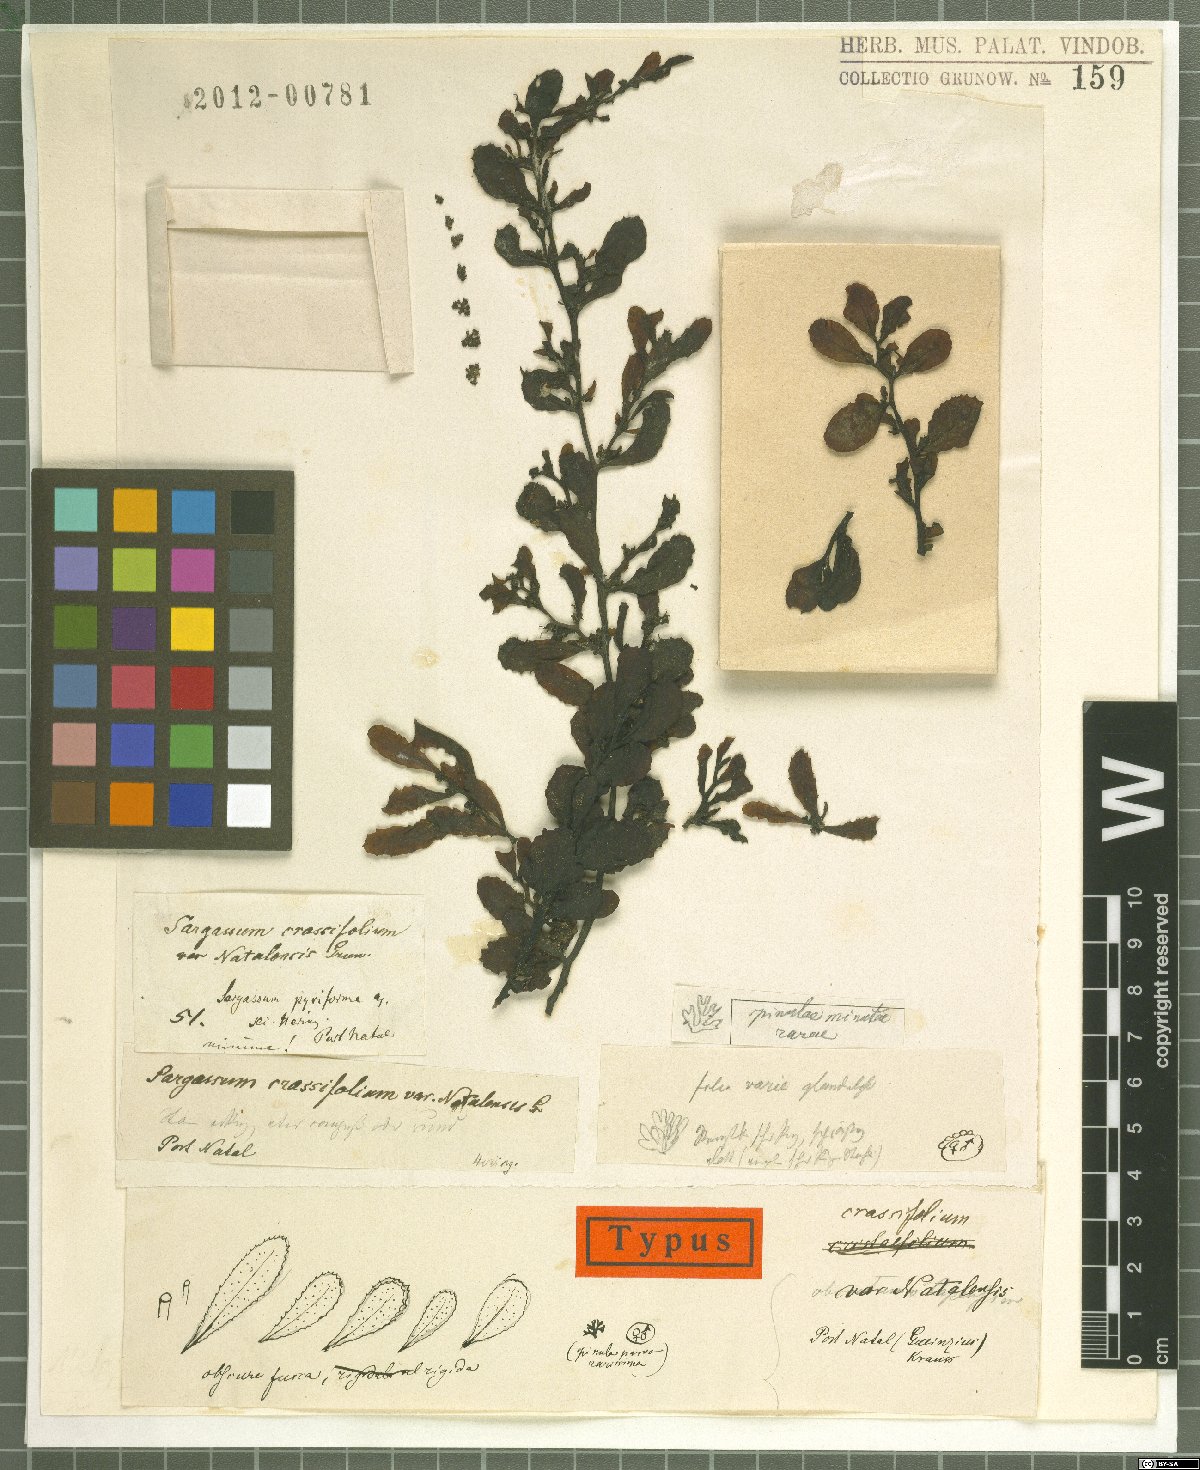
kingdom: Chromista
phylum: Ochrophyta
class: Phaeophyceae
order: Fucales
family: Sargassaceae
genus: Sargassum
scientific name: Sargassum telephifolium
